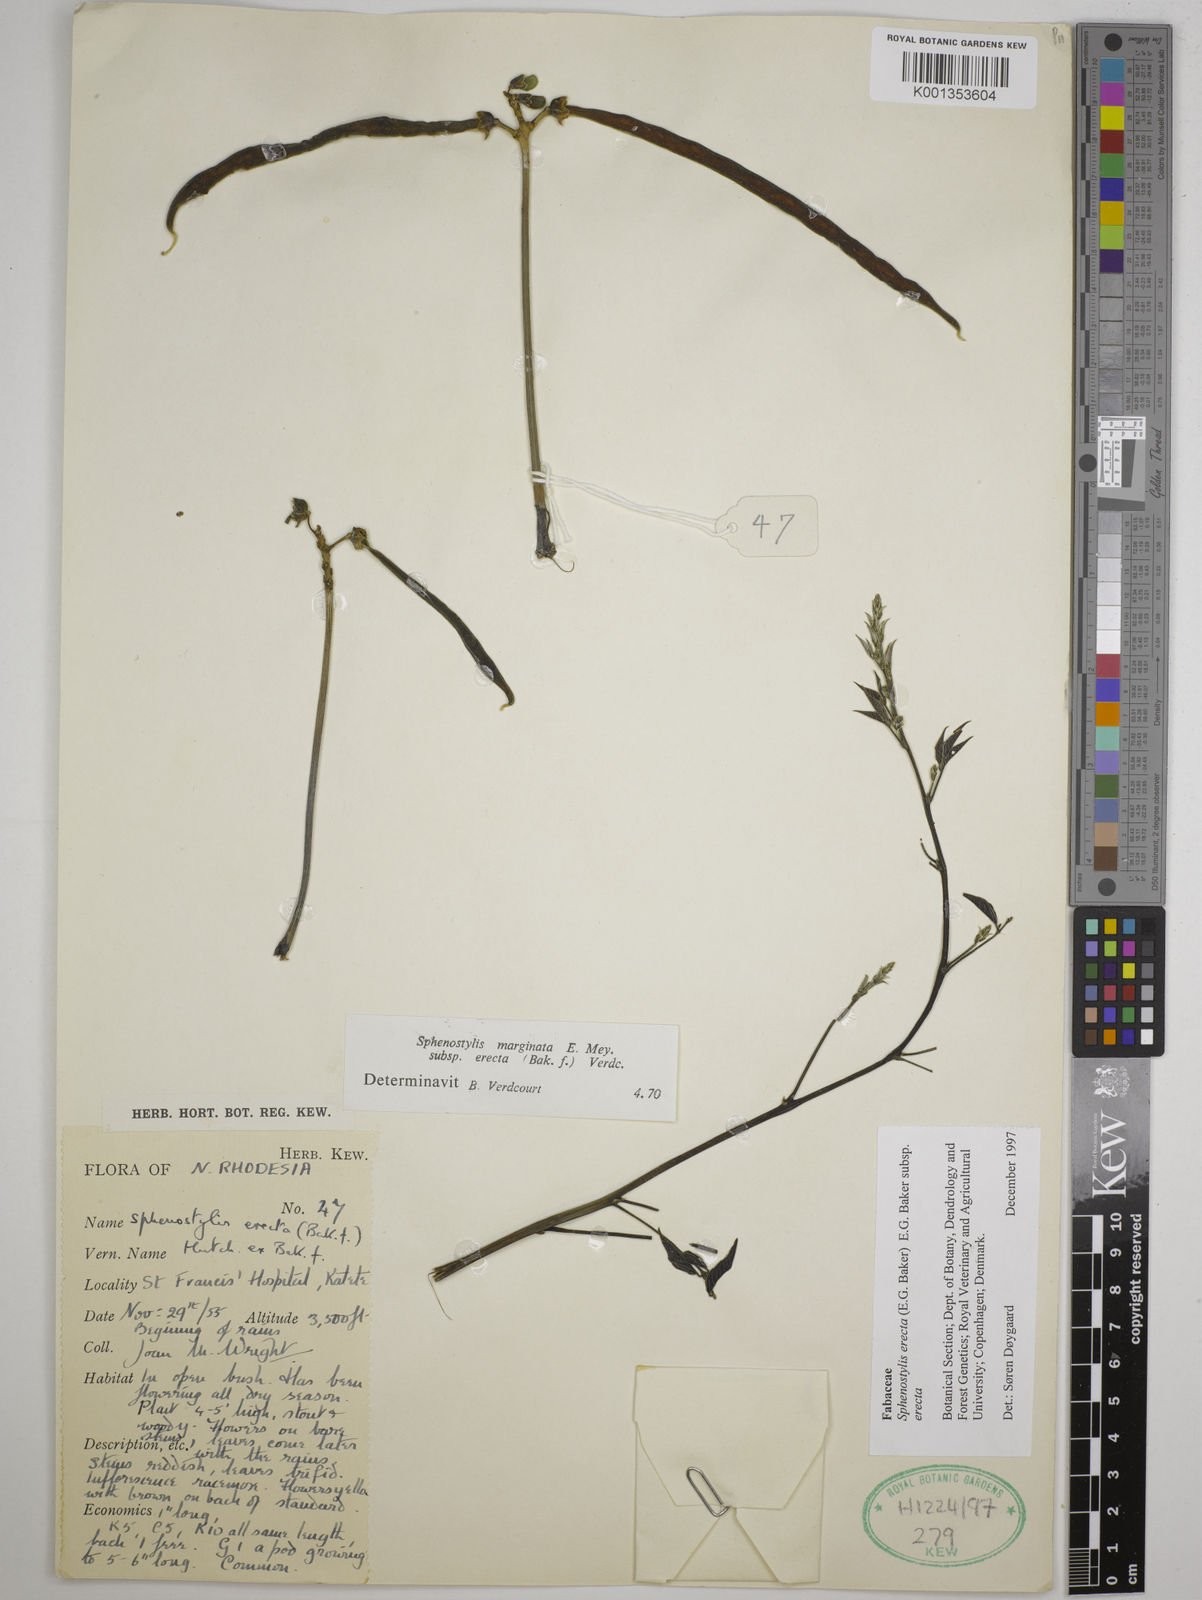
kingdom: Plantae
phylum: Tracheophyta
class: Magnoliopsida
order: Fabales
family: Fabaceae
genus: Sphenostylis
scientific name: Sphenostylis erecta
